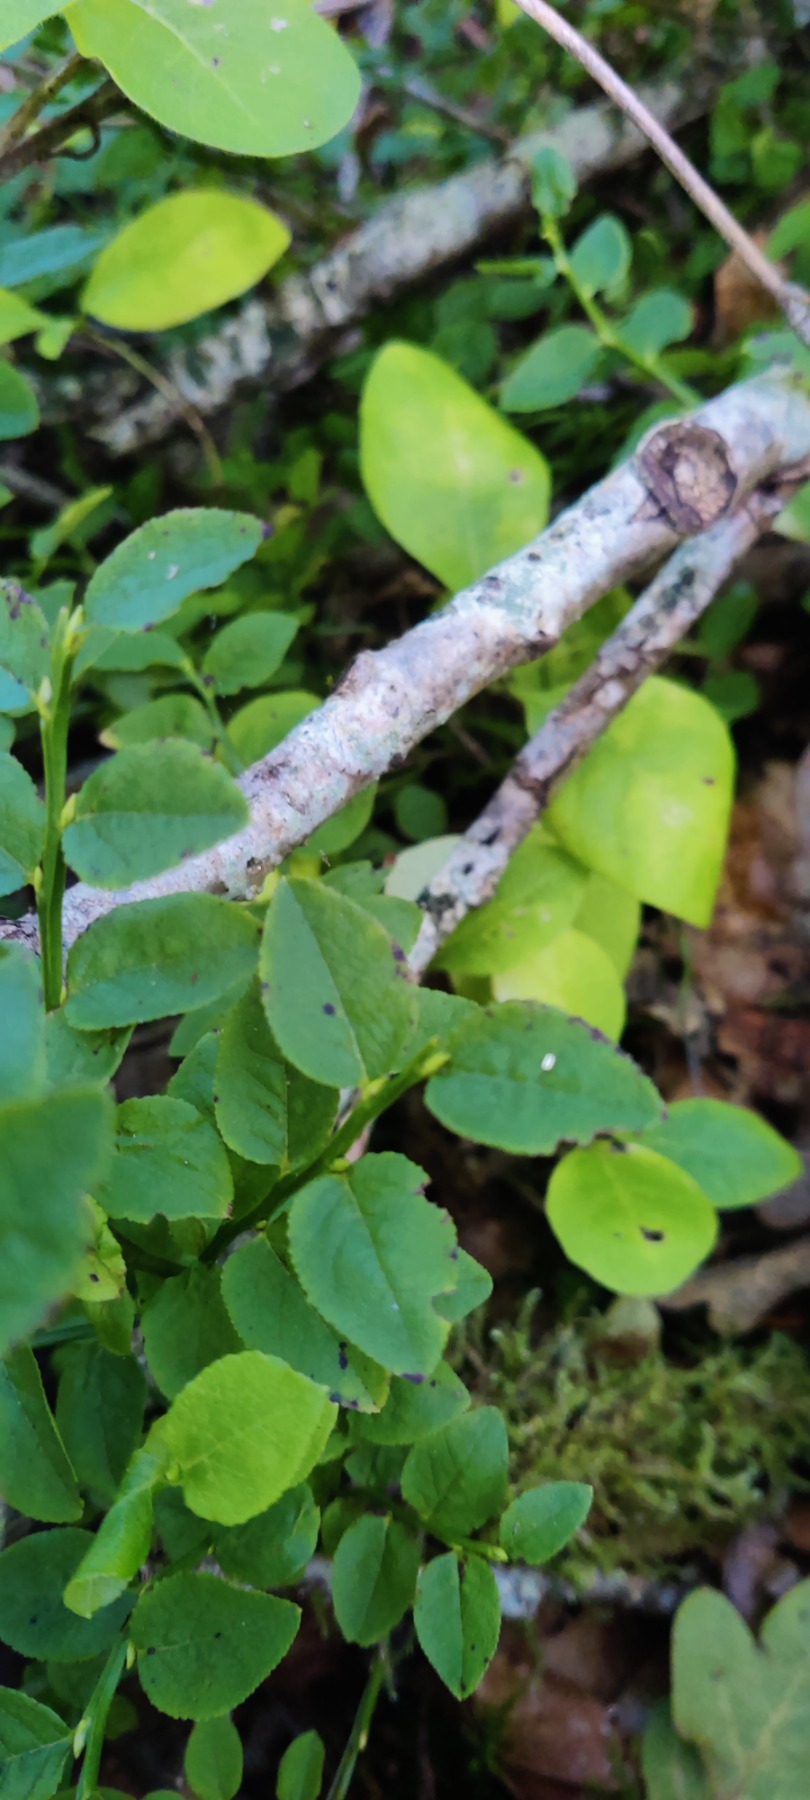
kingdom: Plantae
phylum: Tracheophyta
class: Magnoliopsida
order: Ericales
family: Ericaceae
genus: Vaccinium
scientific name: Vaccinium myrtillus
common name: Blåbær
